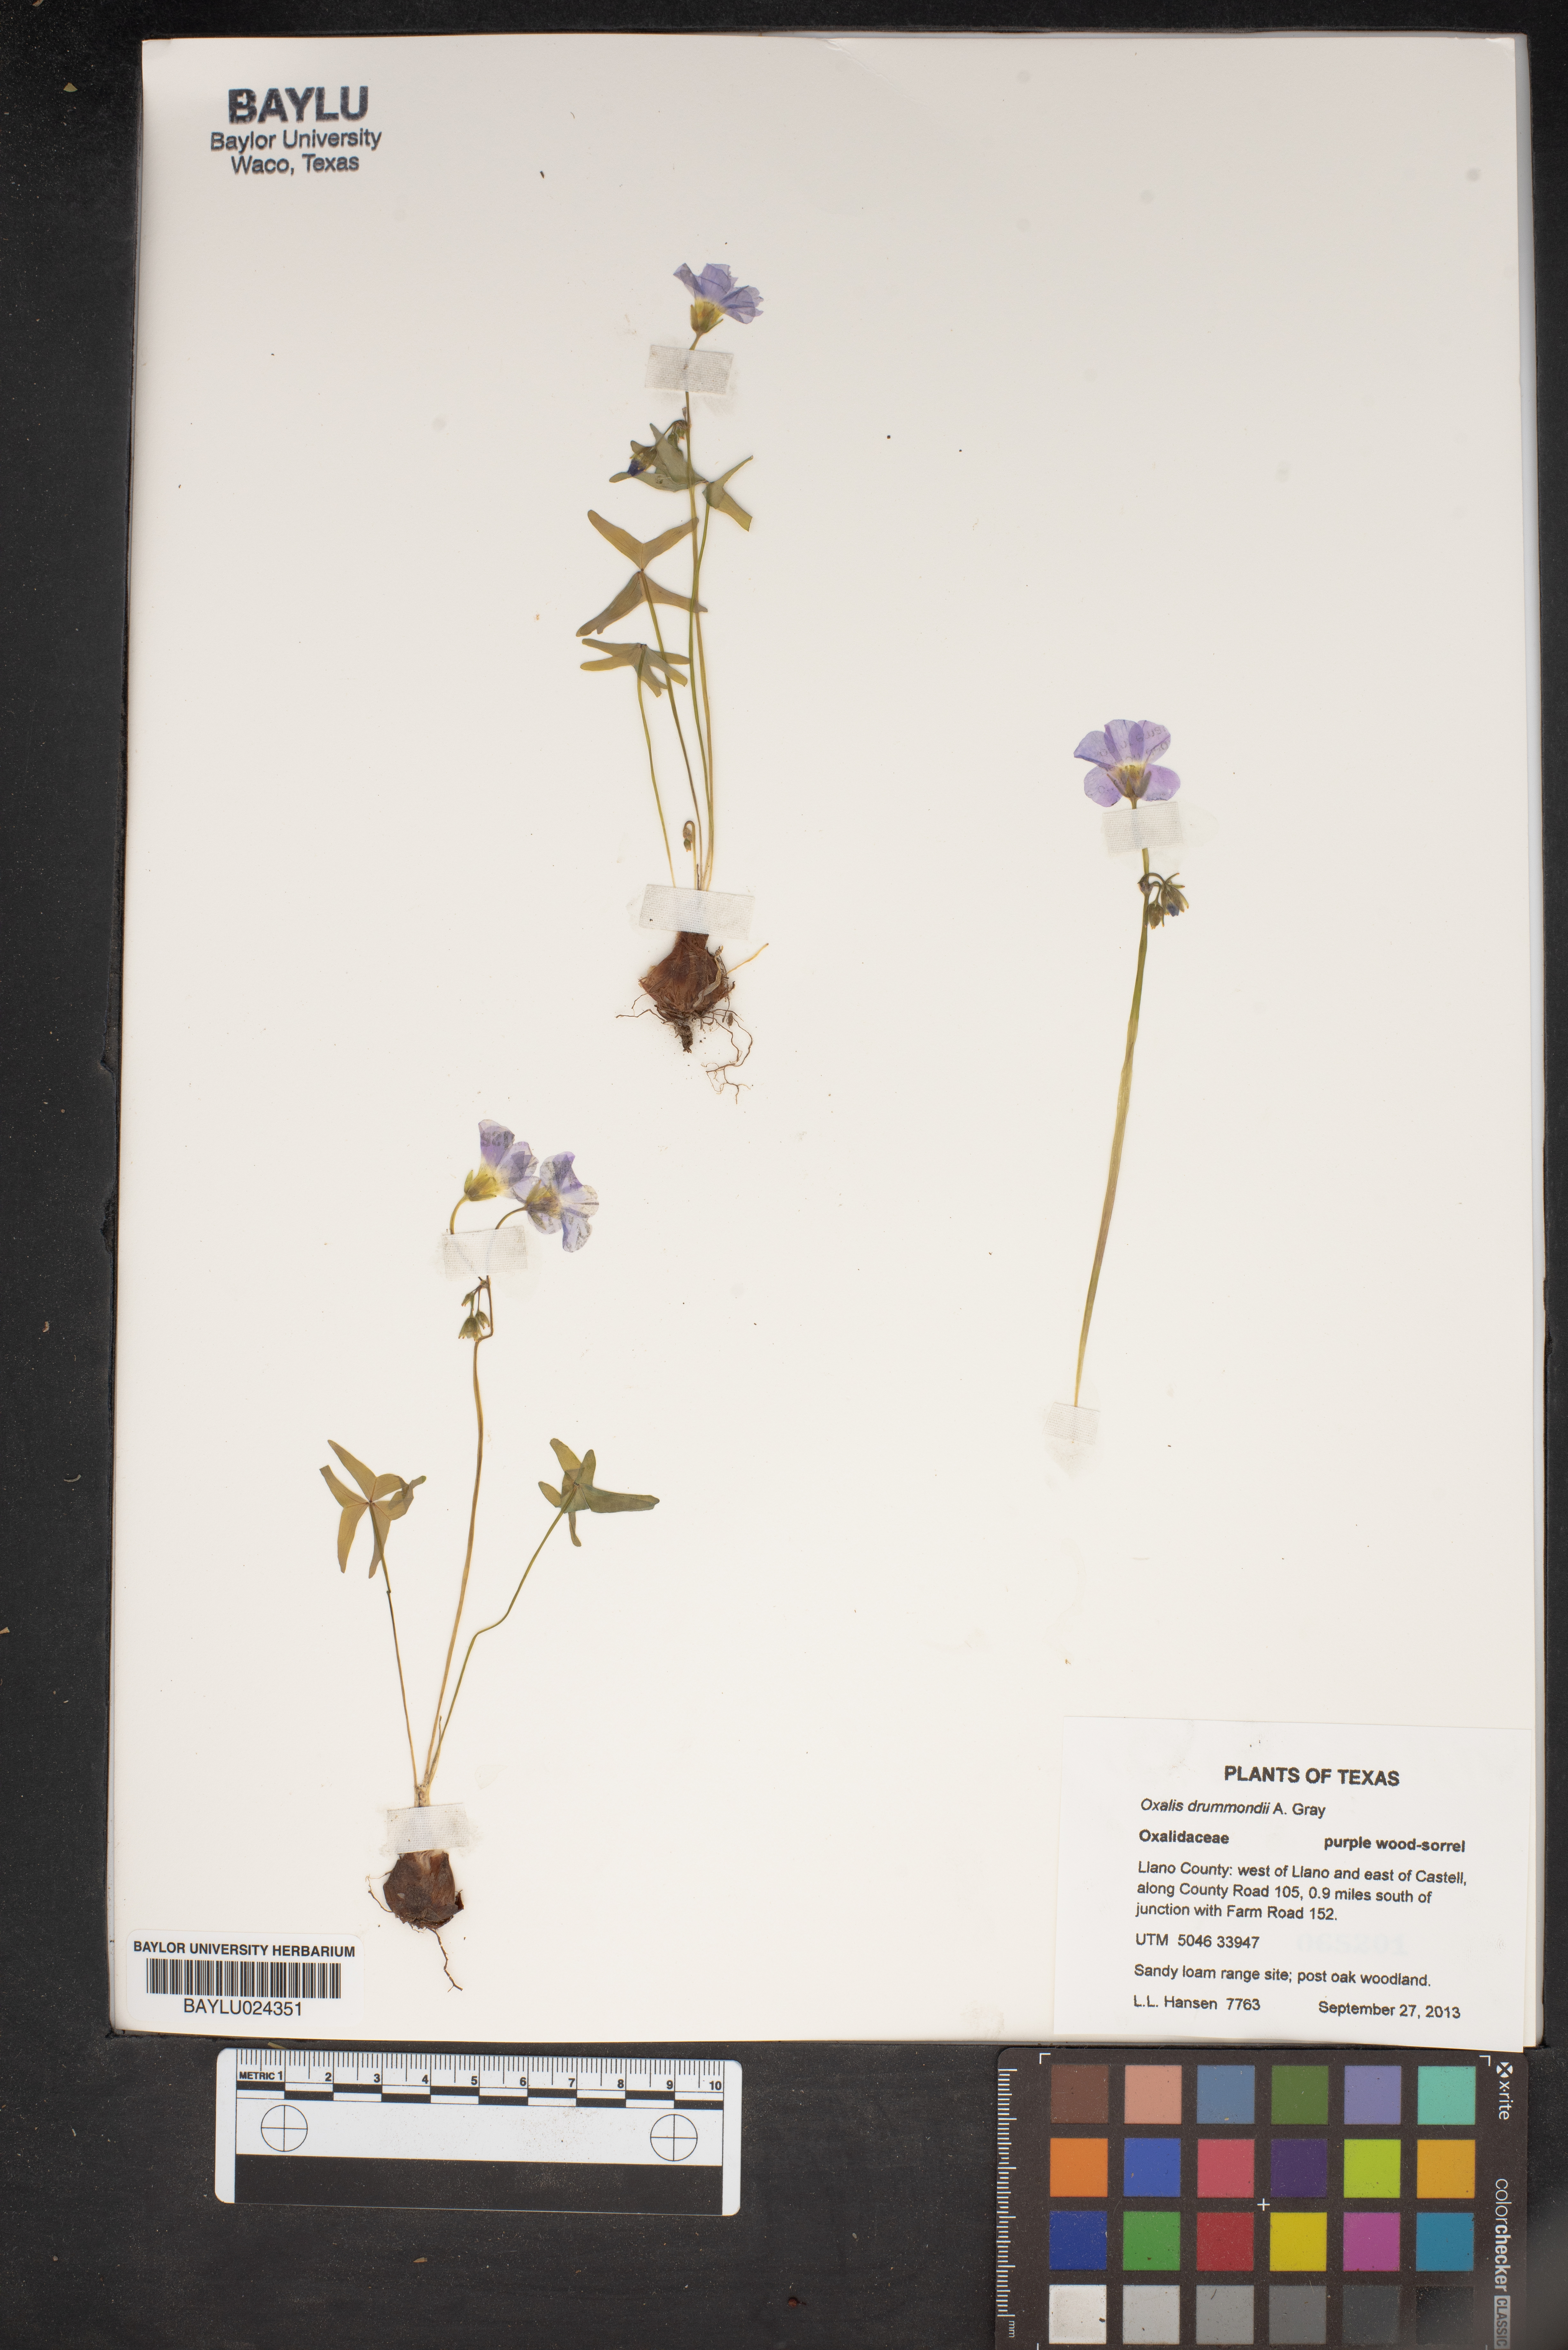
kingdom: Plantae
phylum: Tracheophyta
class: Magnoliopsida
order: Oxalidales
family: Oxalidaceae
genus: Oxalis
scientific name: Oxalis drummondii
